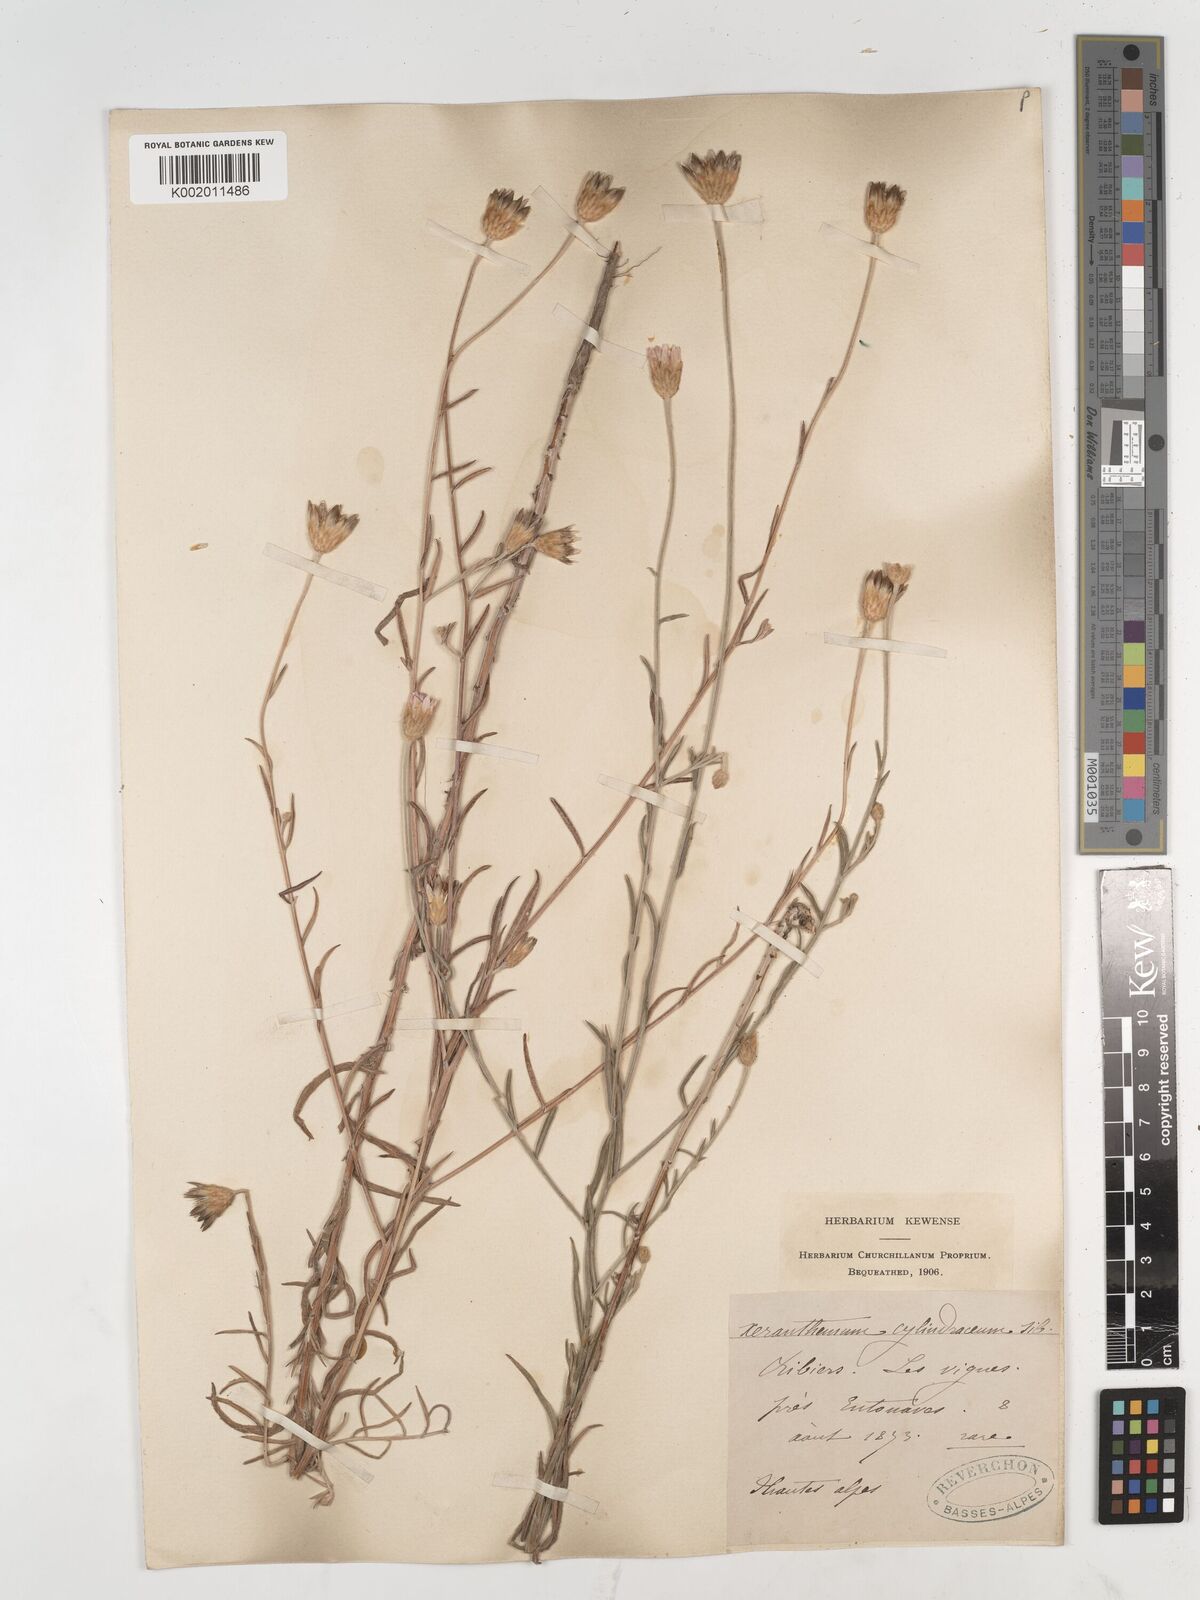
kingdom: Plantae
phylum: Tracheophyta
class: Magnoliopsida
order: Asterales
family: Asteraceae
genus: Xeranthemum
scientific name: Xeranthemum cylindraceum
